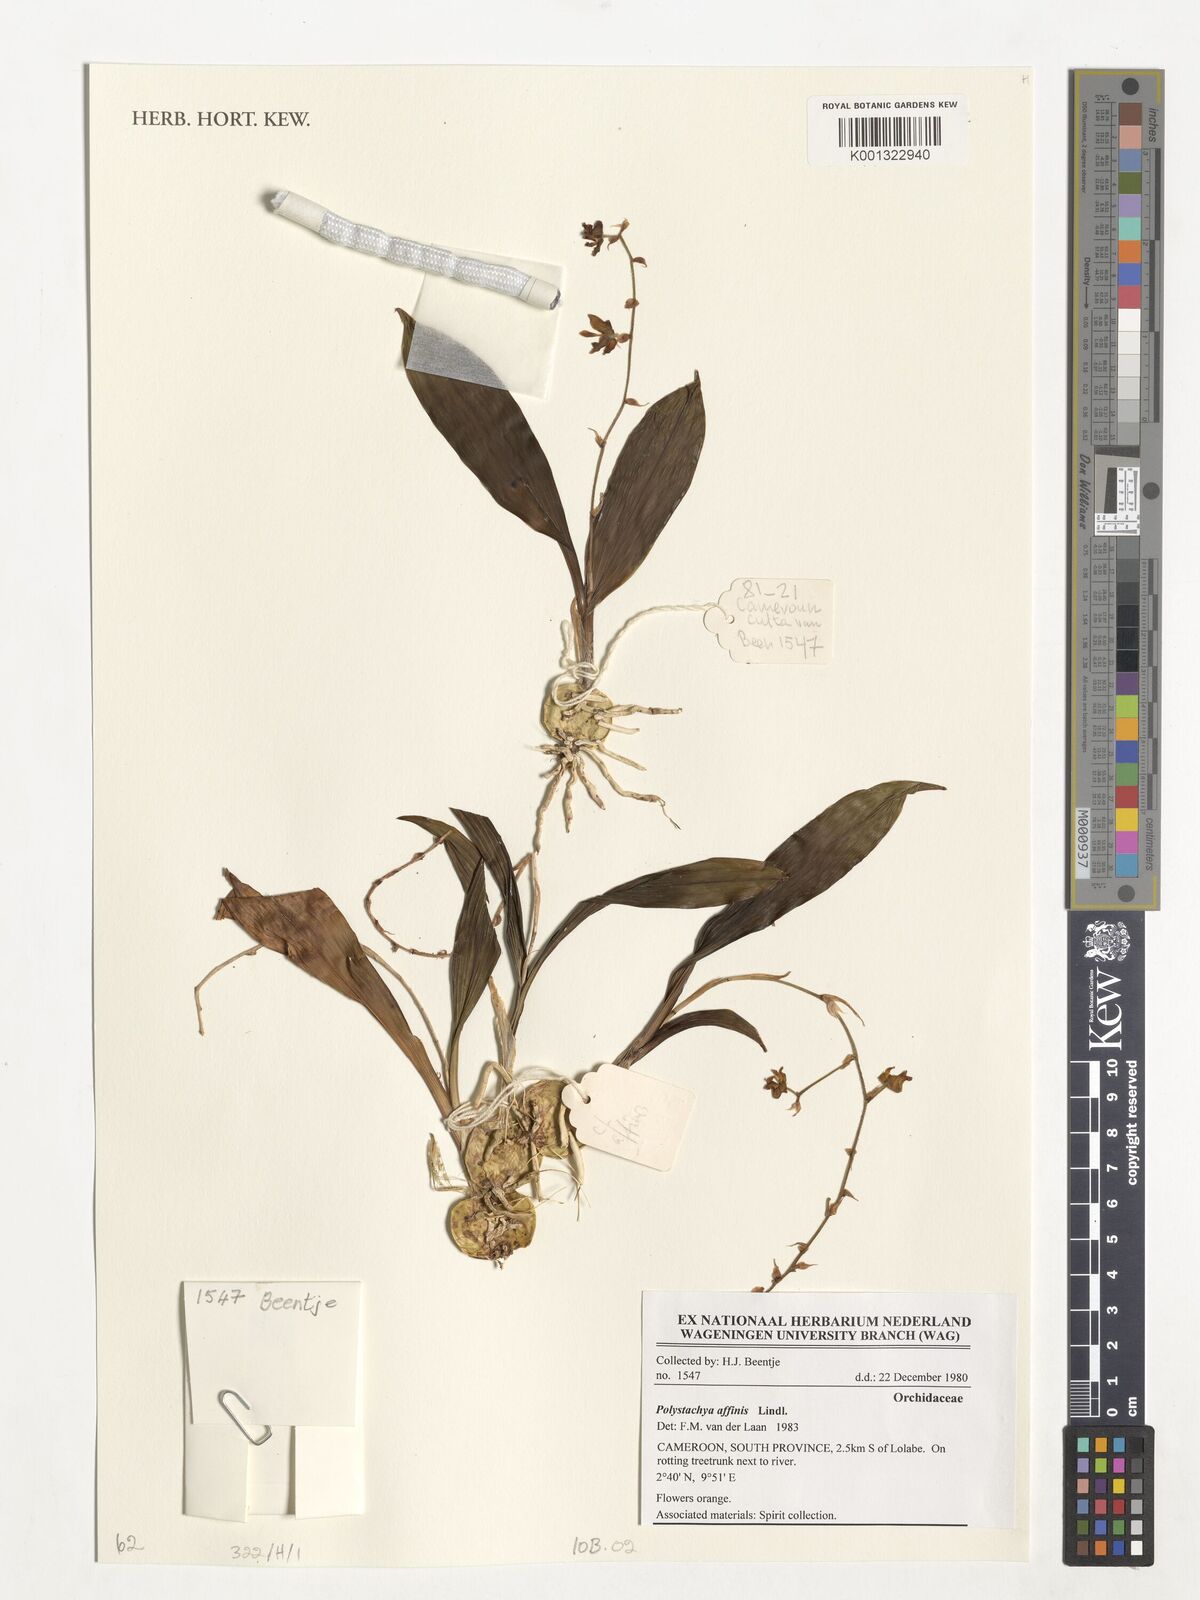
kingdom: Plantae
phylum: Tracheophyta
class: Liliopsida
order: Asparagales
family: Orchidaceae
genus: Polystachya
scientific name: Polystachya affinis
